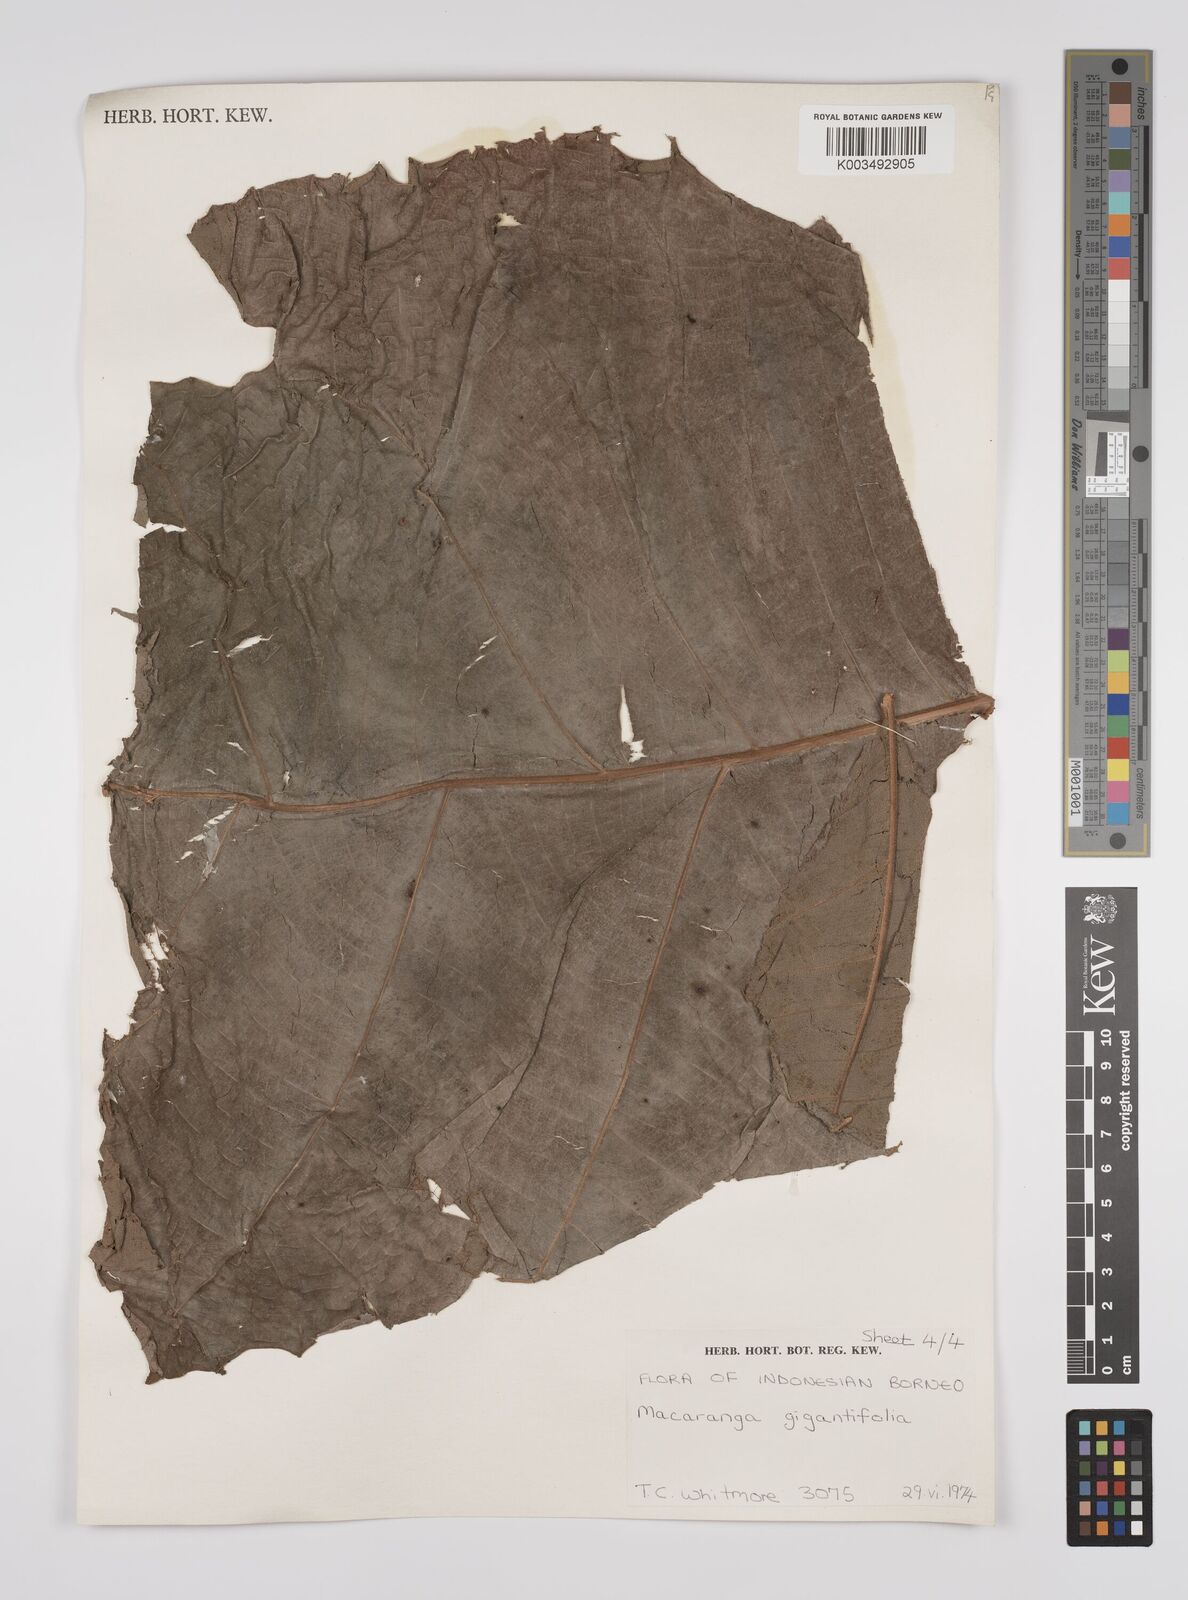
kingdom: Plantae
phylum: Tracheophyta
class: Magnoliopsida
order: Malpighiales
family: Euphorbiaceae
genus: Macaranga
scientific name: Macaranga gigantea
